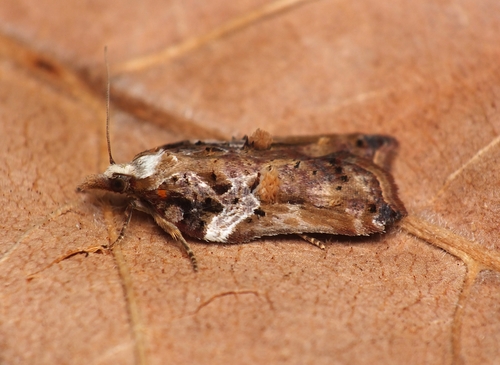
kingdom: Animalia
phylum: Arthropoda
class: Insecta
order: Lepidoptera
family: Tortricidae
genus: Acleris
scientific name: Acleris cristana
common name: Tufted button
